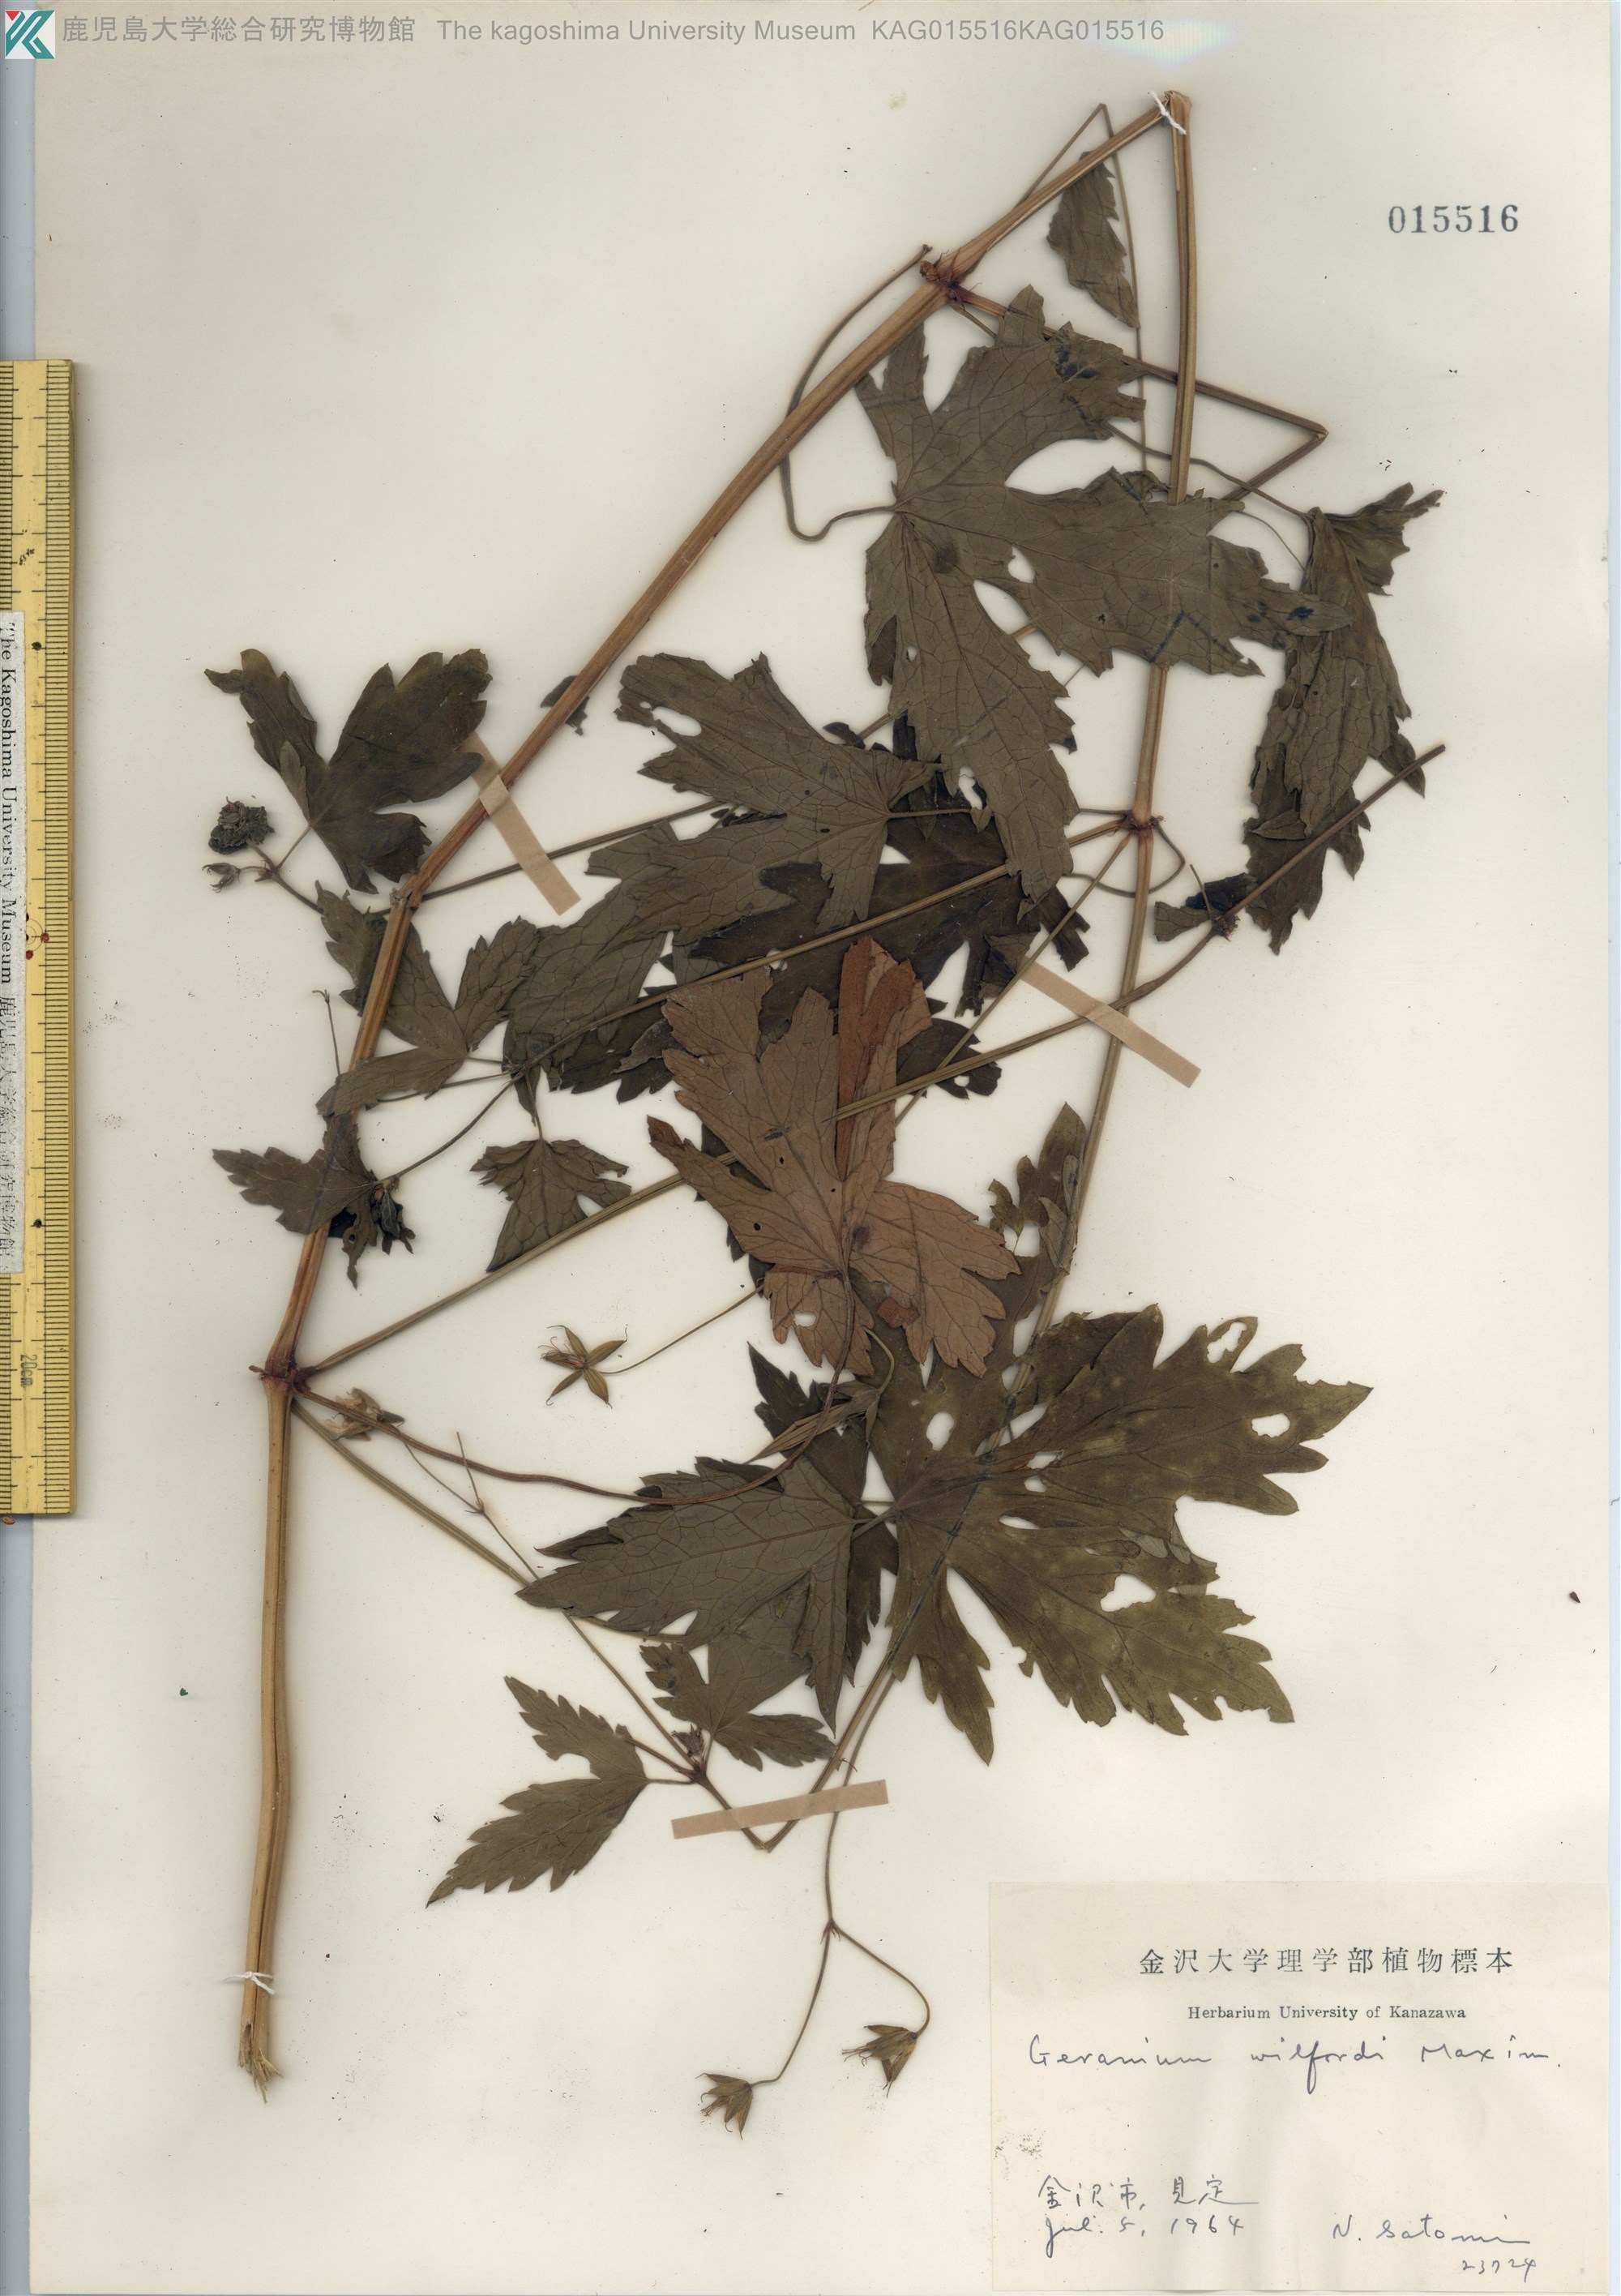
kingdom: Plantae
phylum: Tracheophyta
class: Magnoliopsida
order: Geraniales
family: Geraniaceae
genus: Geranium
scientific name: Geranium wilfordii
